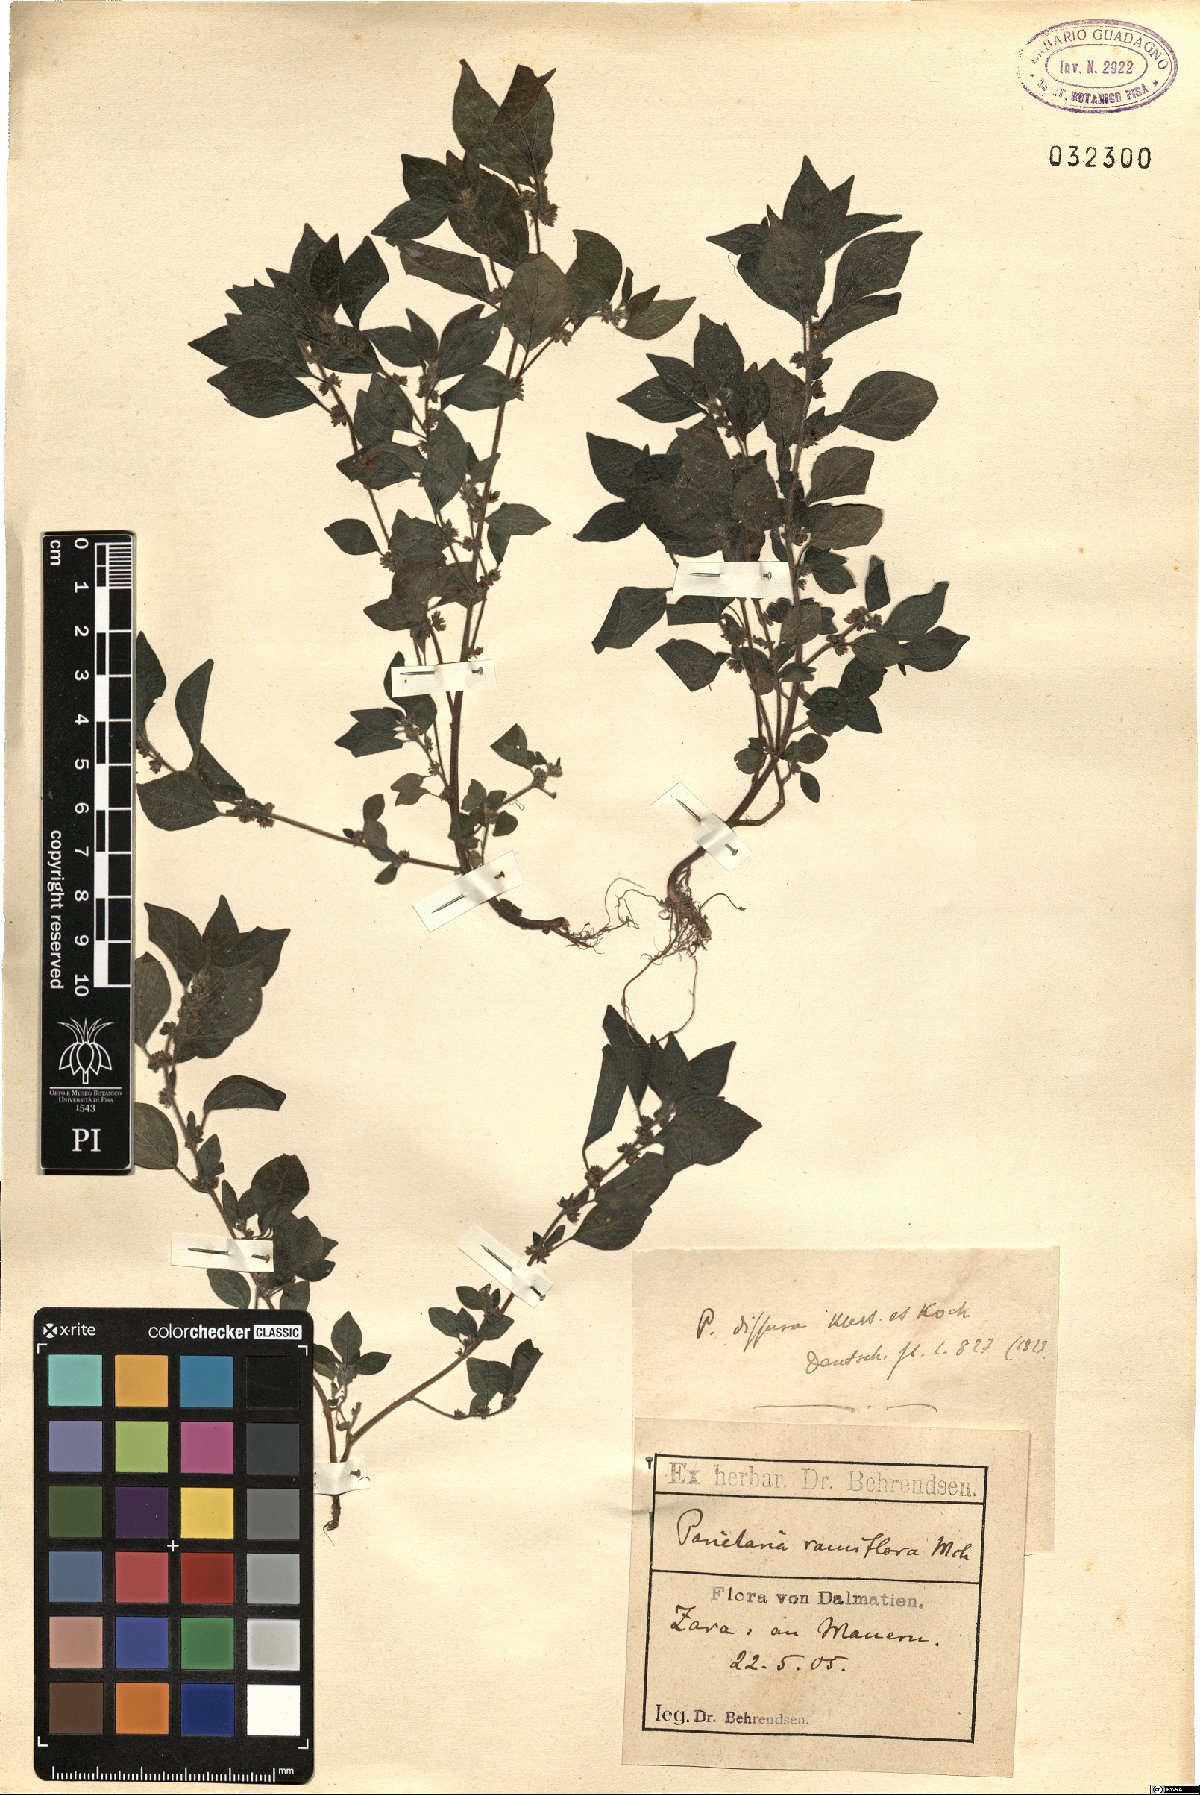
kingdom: Plantae
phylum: Tracheophyta
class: Magnoliopsida
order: Rosales
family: Urticaceae
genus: Parietaria
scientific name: Parietaria judaica
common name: Pellitory-of-the-wall
